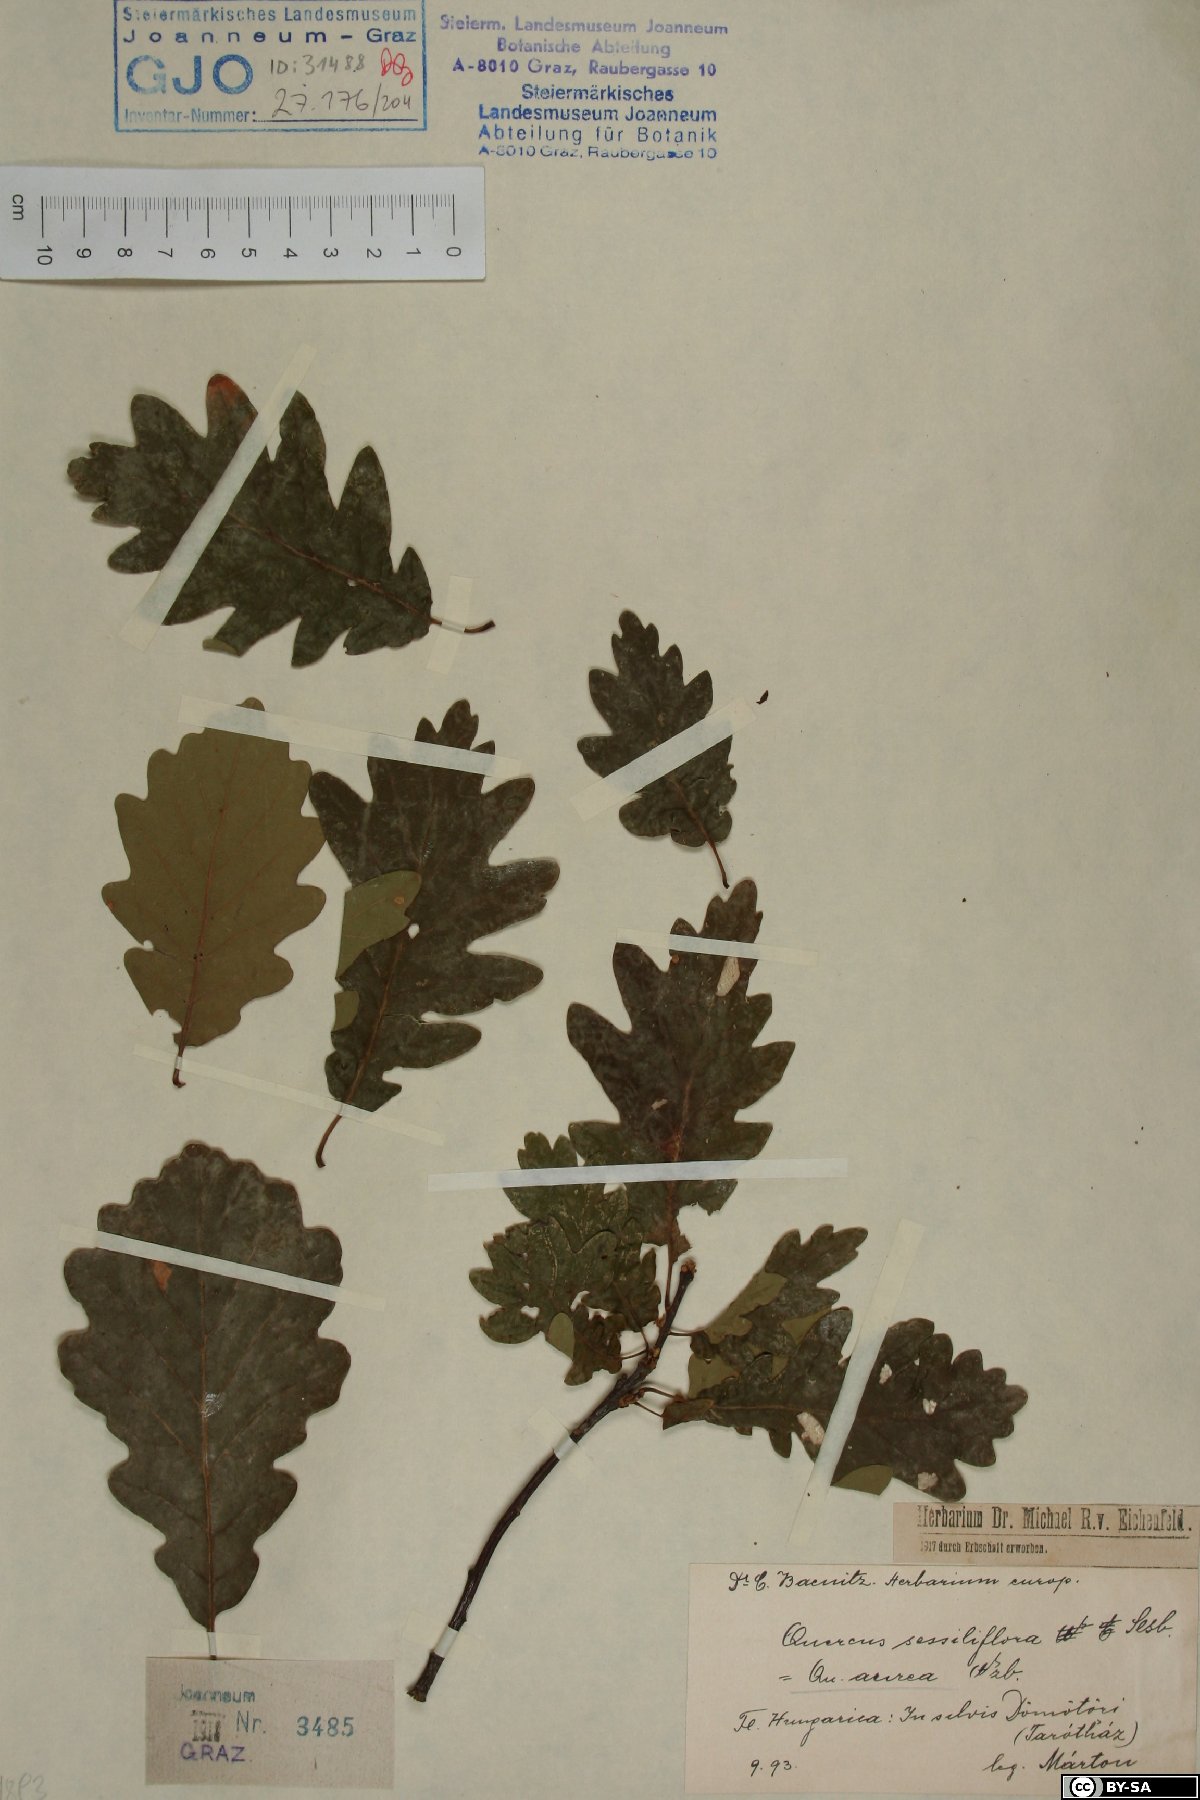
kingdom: Plantae
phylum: Tracheophyta
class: Magnoliopsida
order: Fagales
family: Fagaceae
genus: Quercus
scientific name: Quercus petraea
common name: Sessile oak
